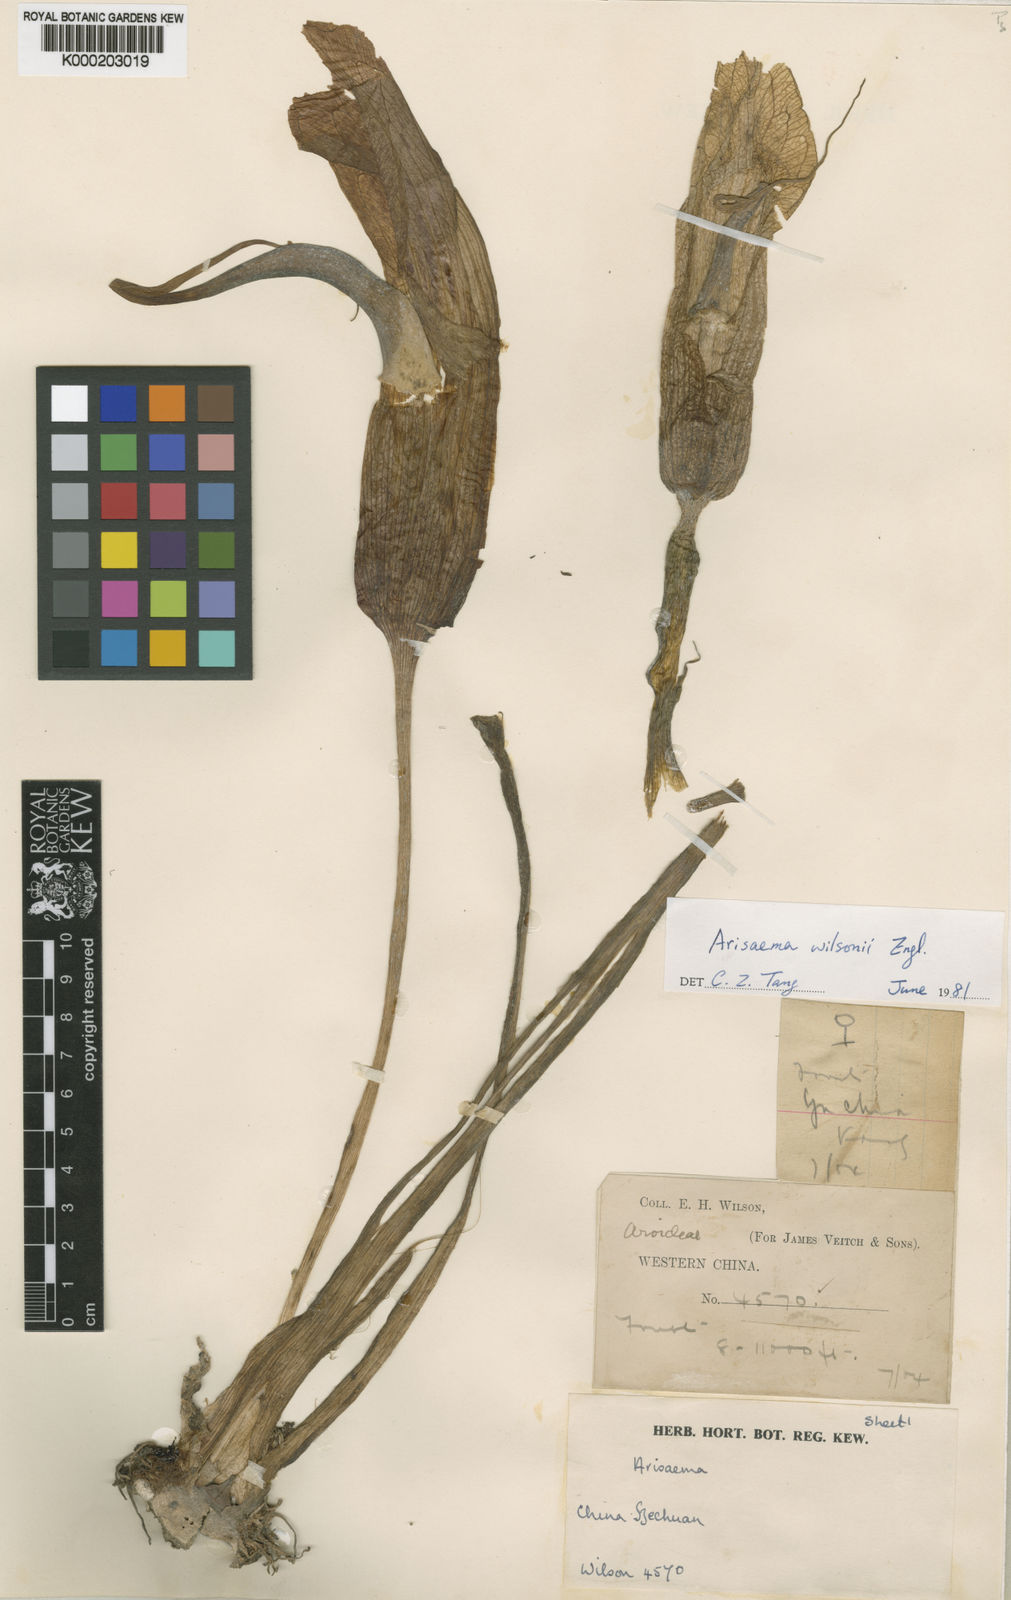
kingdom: Plantae
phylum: Tracheophyta
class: Liliopsida
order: Alismatales
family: Araceae
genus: Arisaema
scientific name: Arisaema wilsonii
